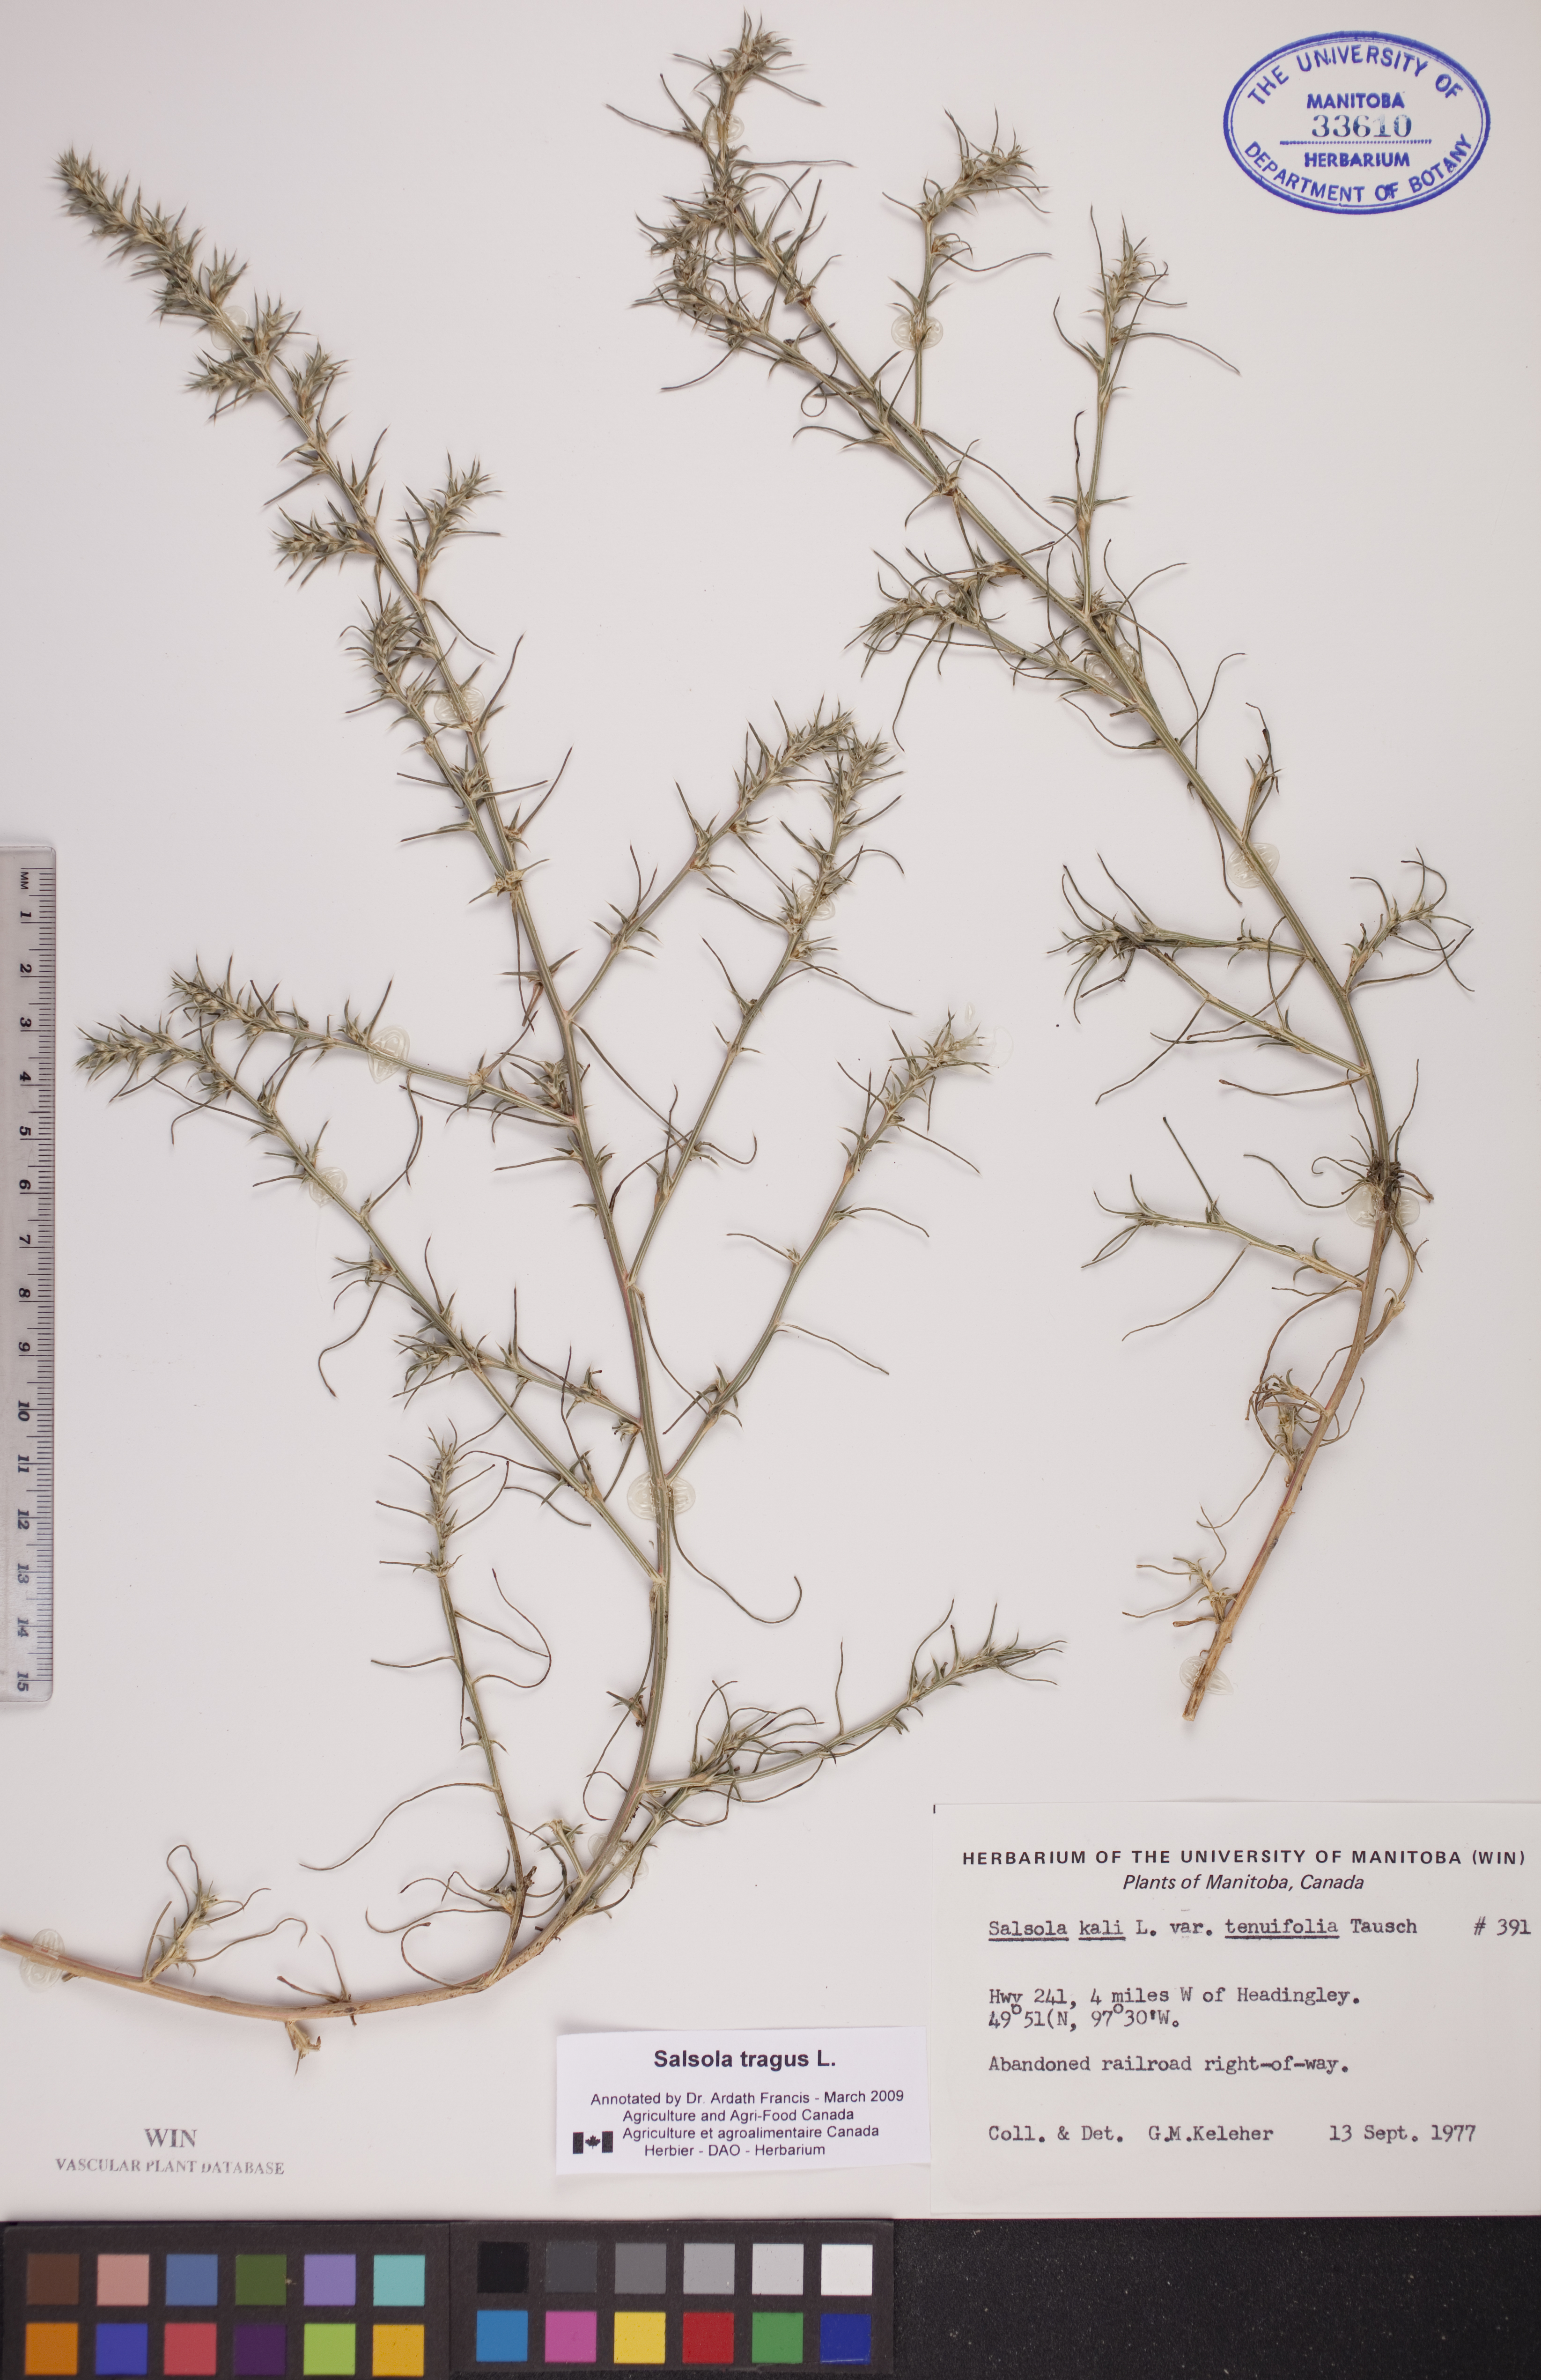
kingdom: Plantae
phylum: Tracheophyta
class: Magnoliopsida
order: Caryophyllales
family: Amaranthaceae
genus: Salsola
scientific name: Salsola tragus
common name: Prickly russian thistle
